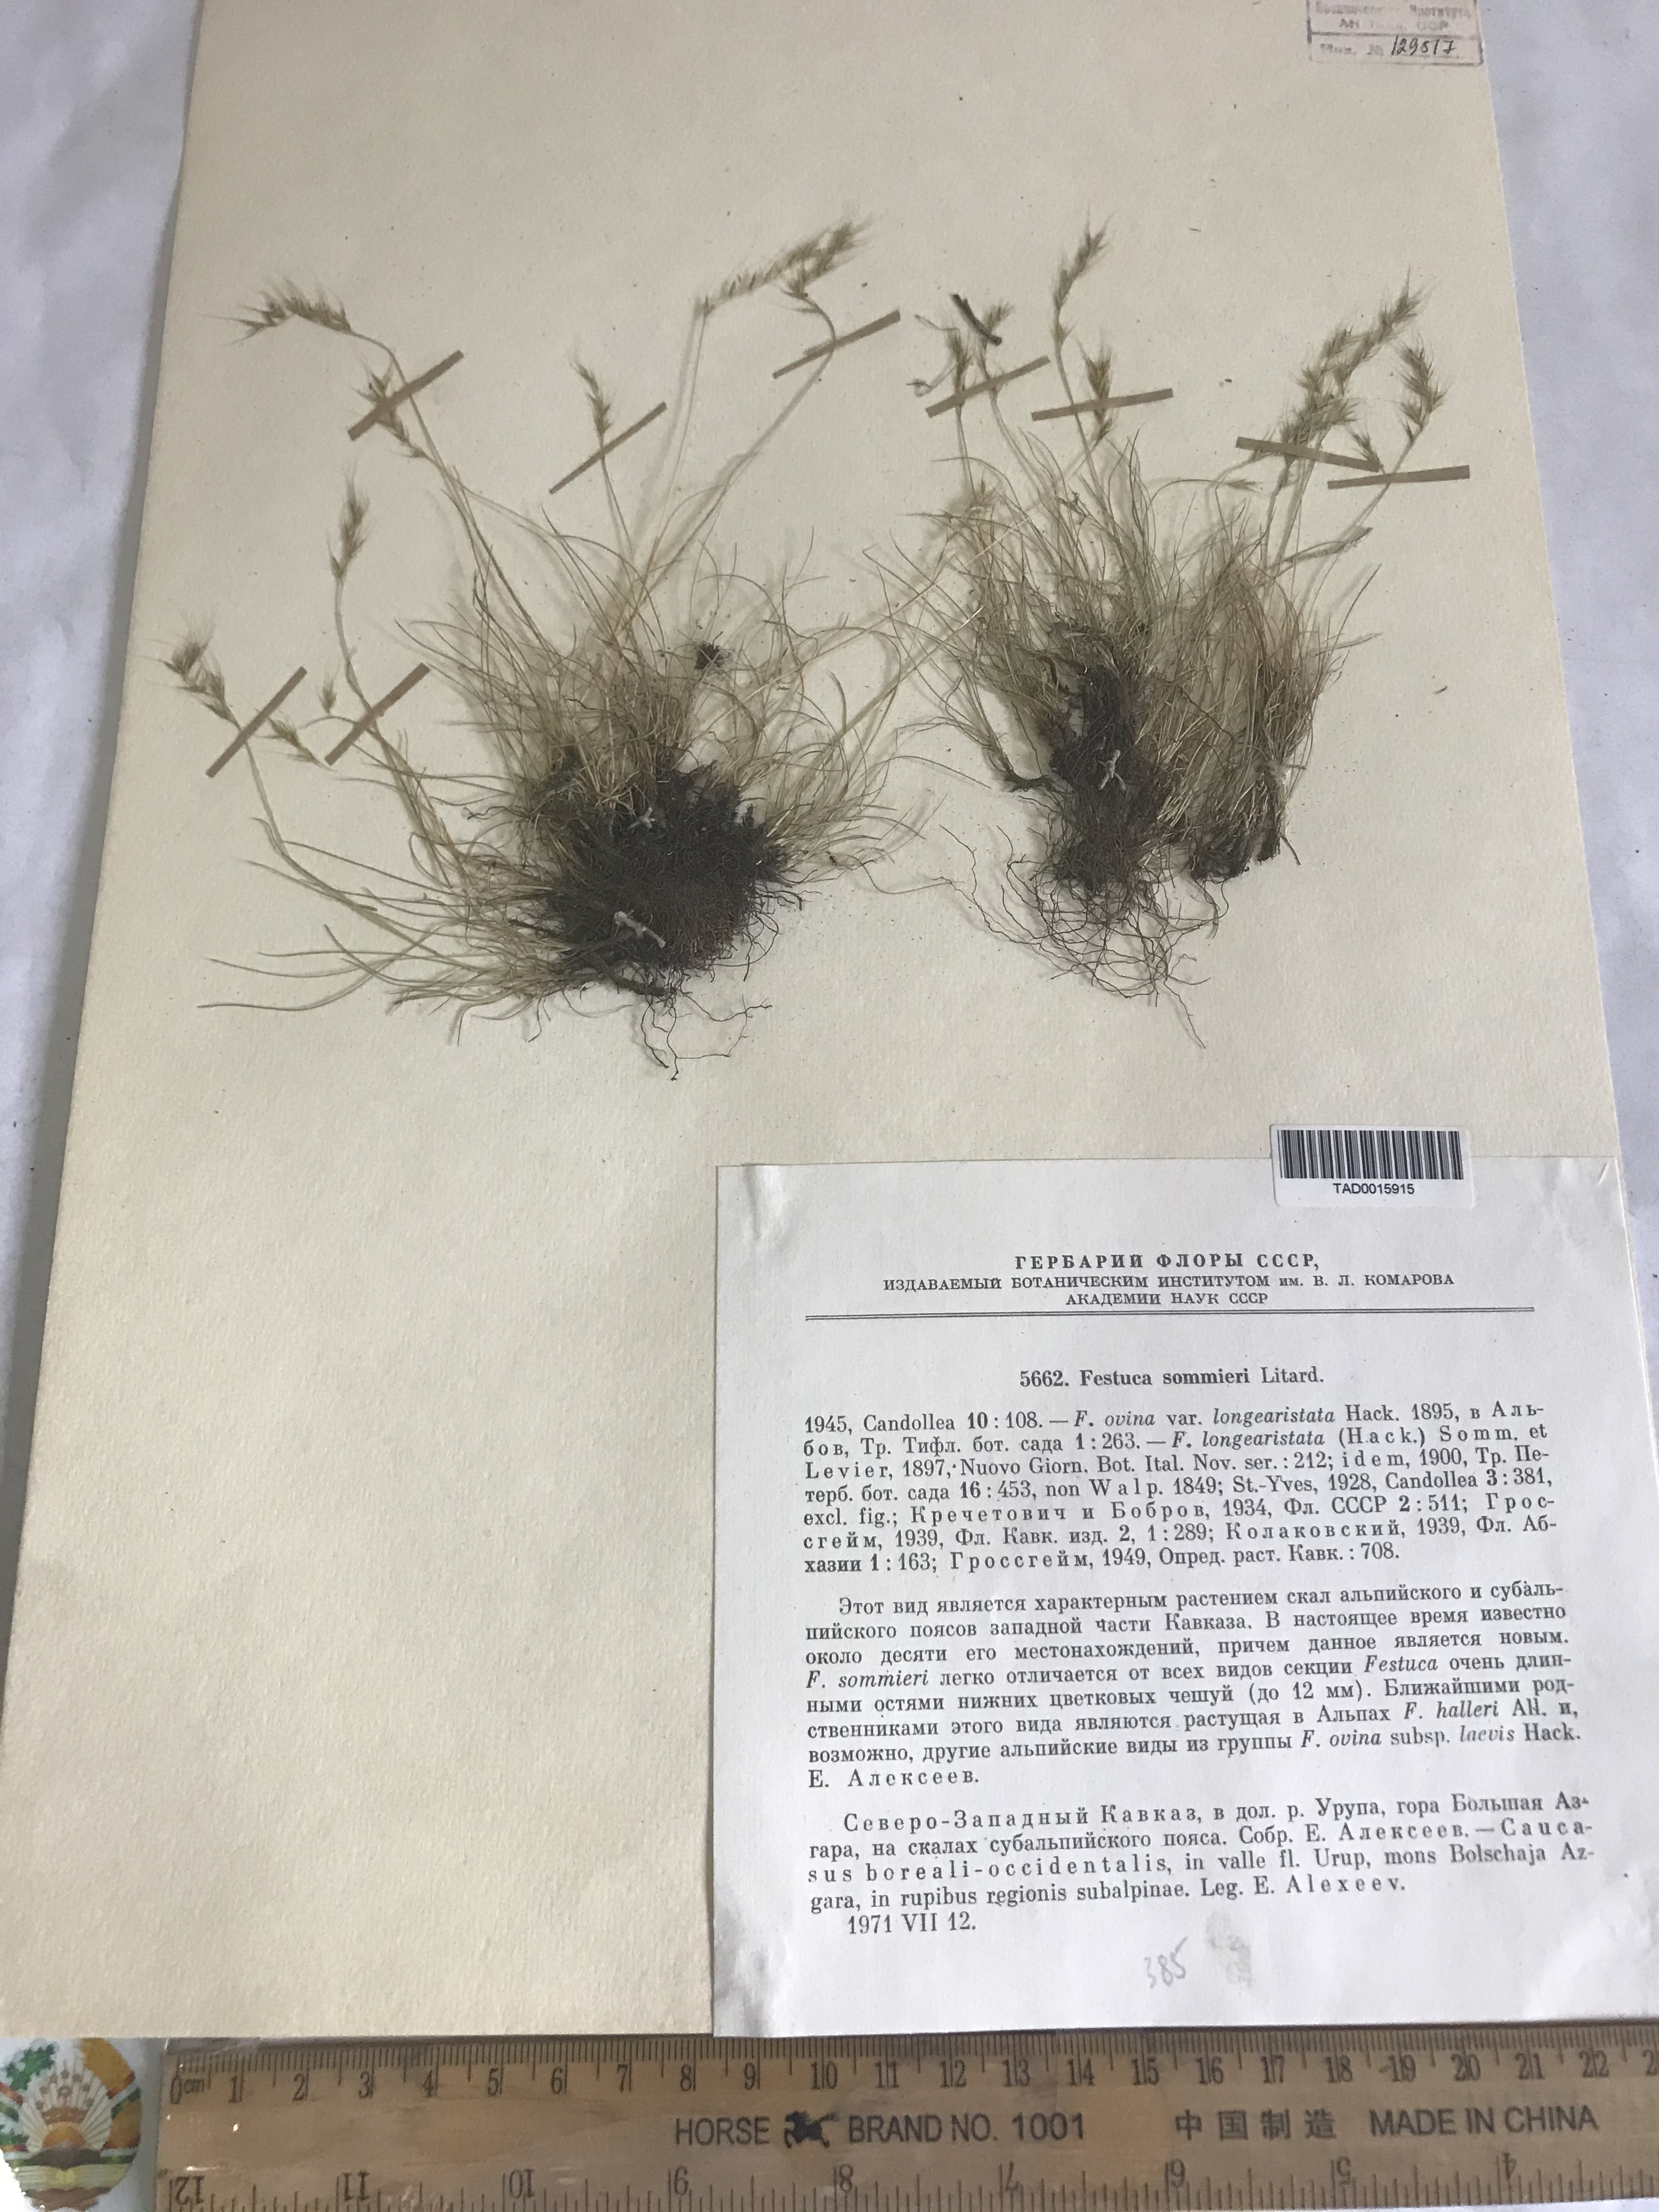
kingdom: Plantae
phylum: Tracheophyta
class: Liliopsida
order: Poales
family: Poaceae
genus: Festuca
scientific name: Festuca sommieri
